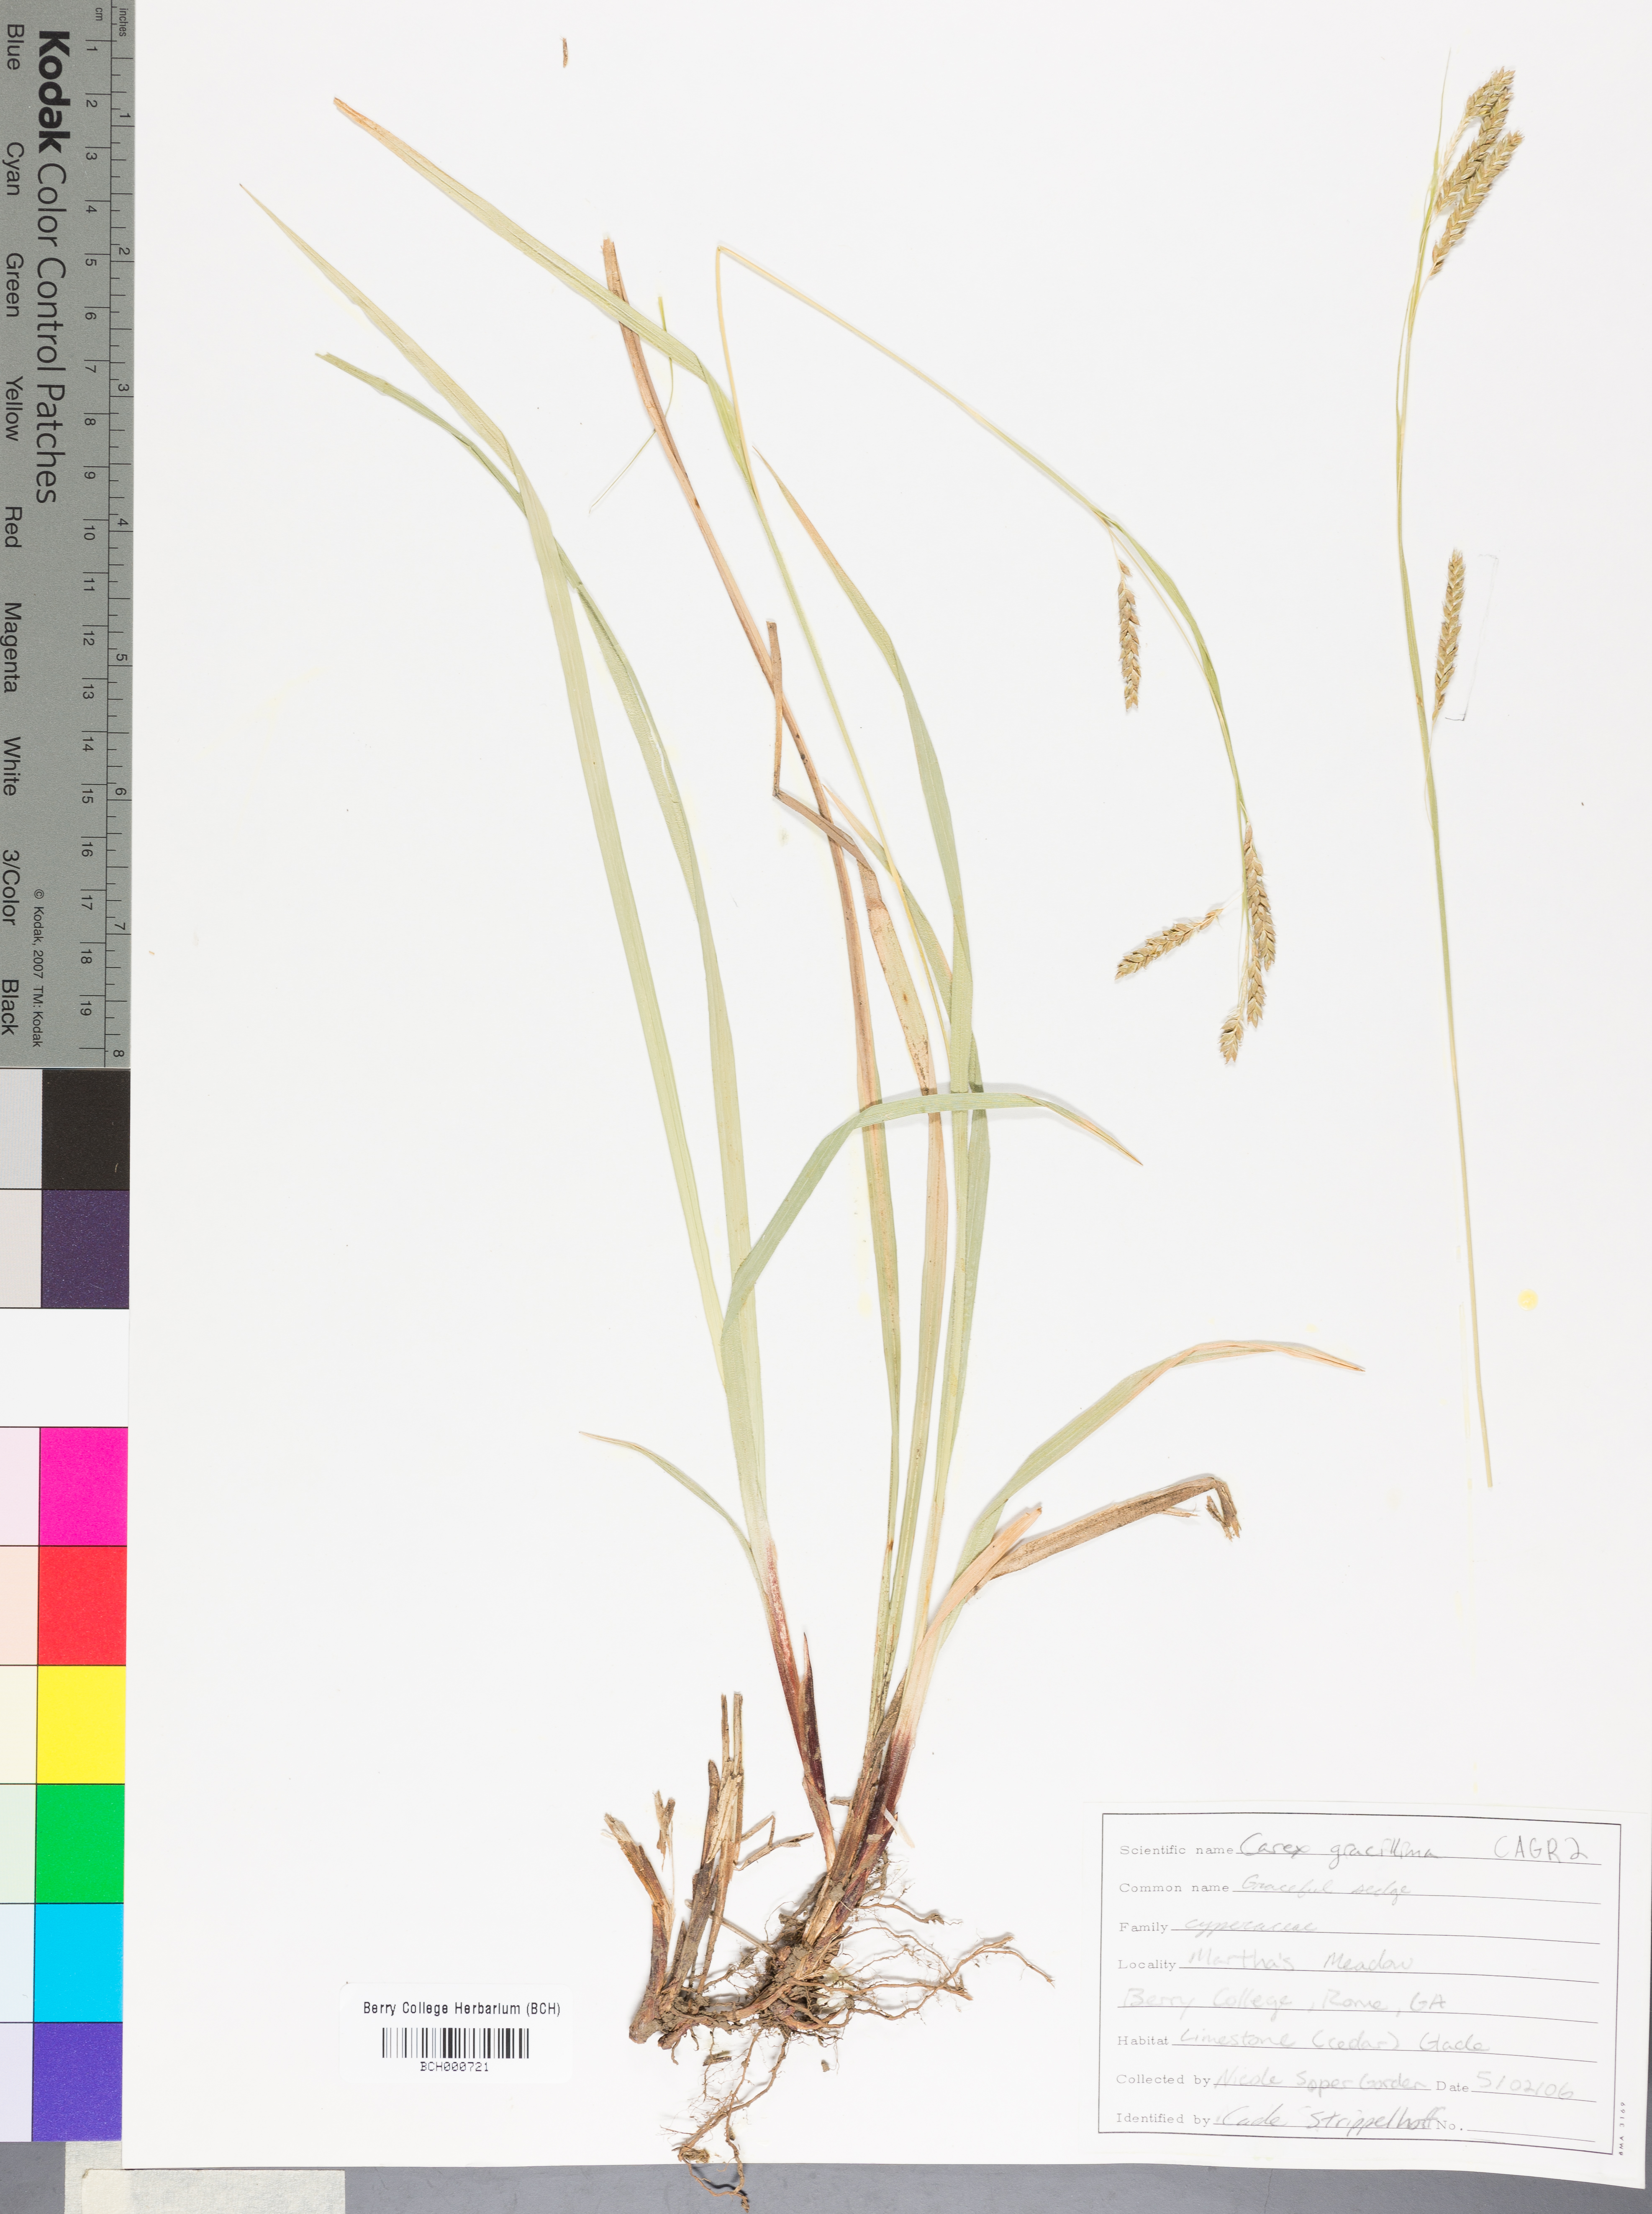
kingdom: Plantae
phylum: Tracheophyta
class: Liliopsida
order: Poales
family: Cyperaceae
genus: Carex
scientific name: Carex gracillima
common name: Graceful sedge
